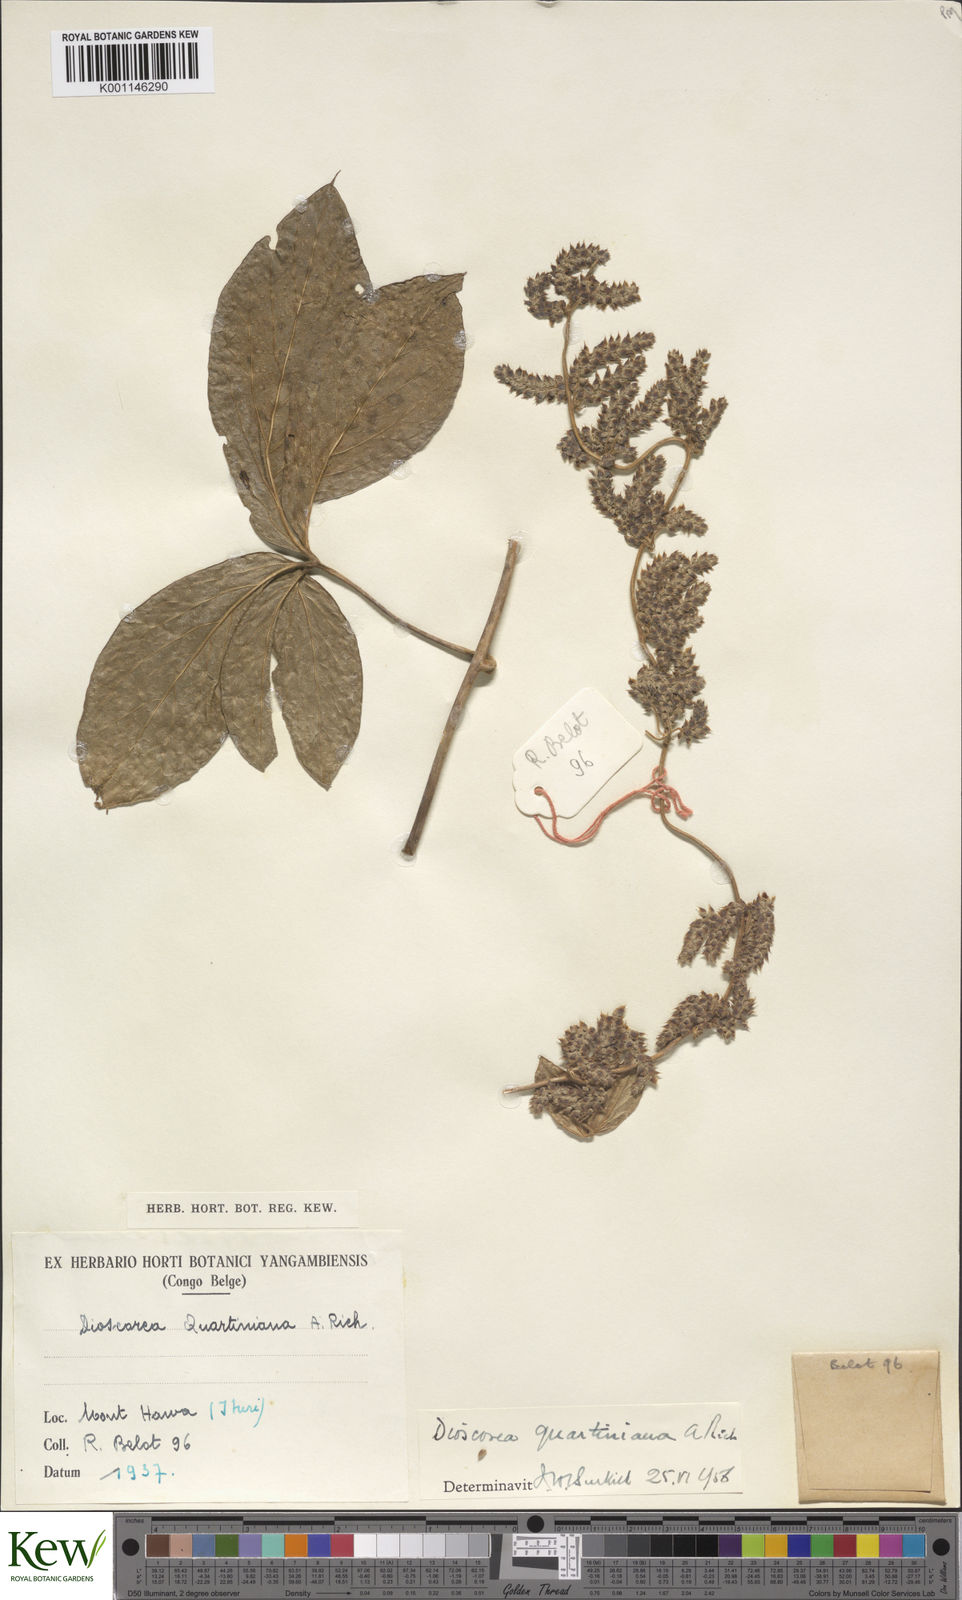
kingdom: Plantae
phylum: Tracheophyta
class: Liliopsida
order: Dioscoreales
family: Dioscoreaceae
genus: Dioscorea
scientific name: Dioscorea quartiniana
